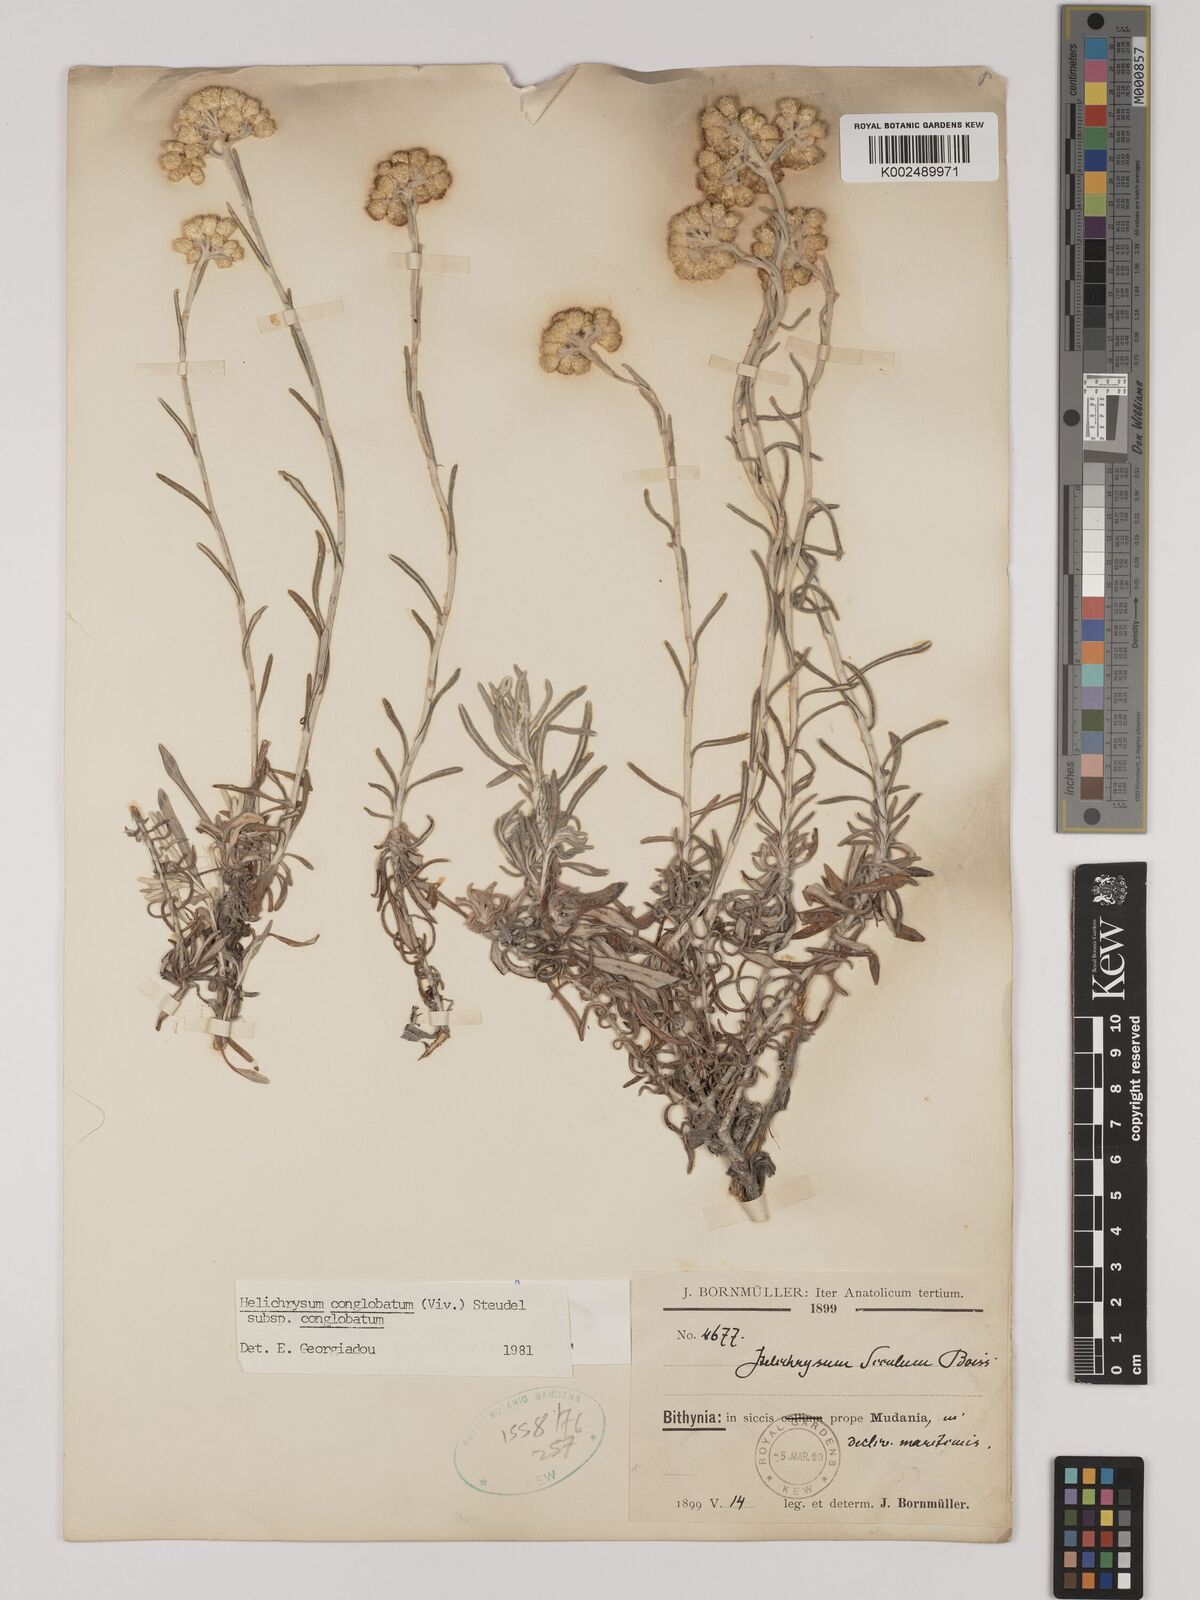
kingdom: Plantae
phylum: Tracheophyta
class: Magnoliopsida
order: Asterales
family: Asteraceae
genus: Helichrysum
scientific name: Helichrysum stoechas
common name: Goldilocks
